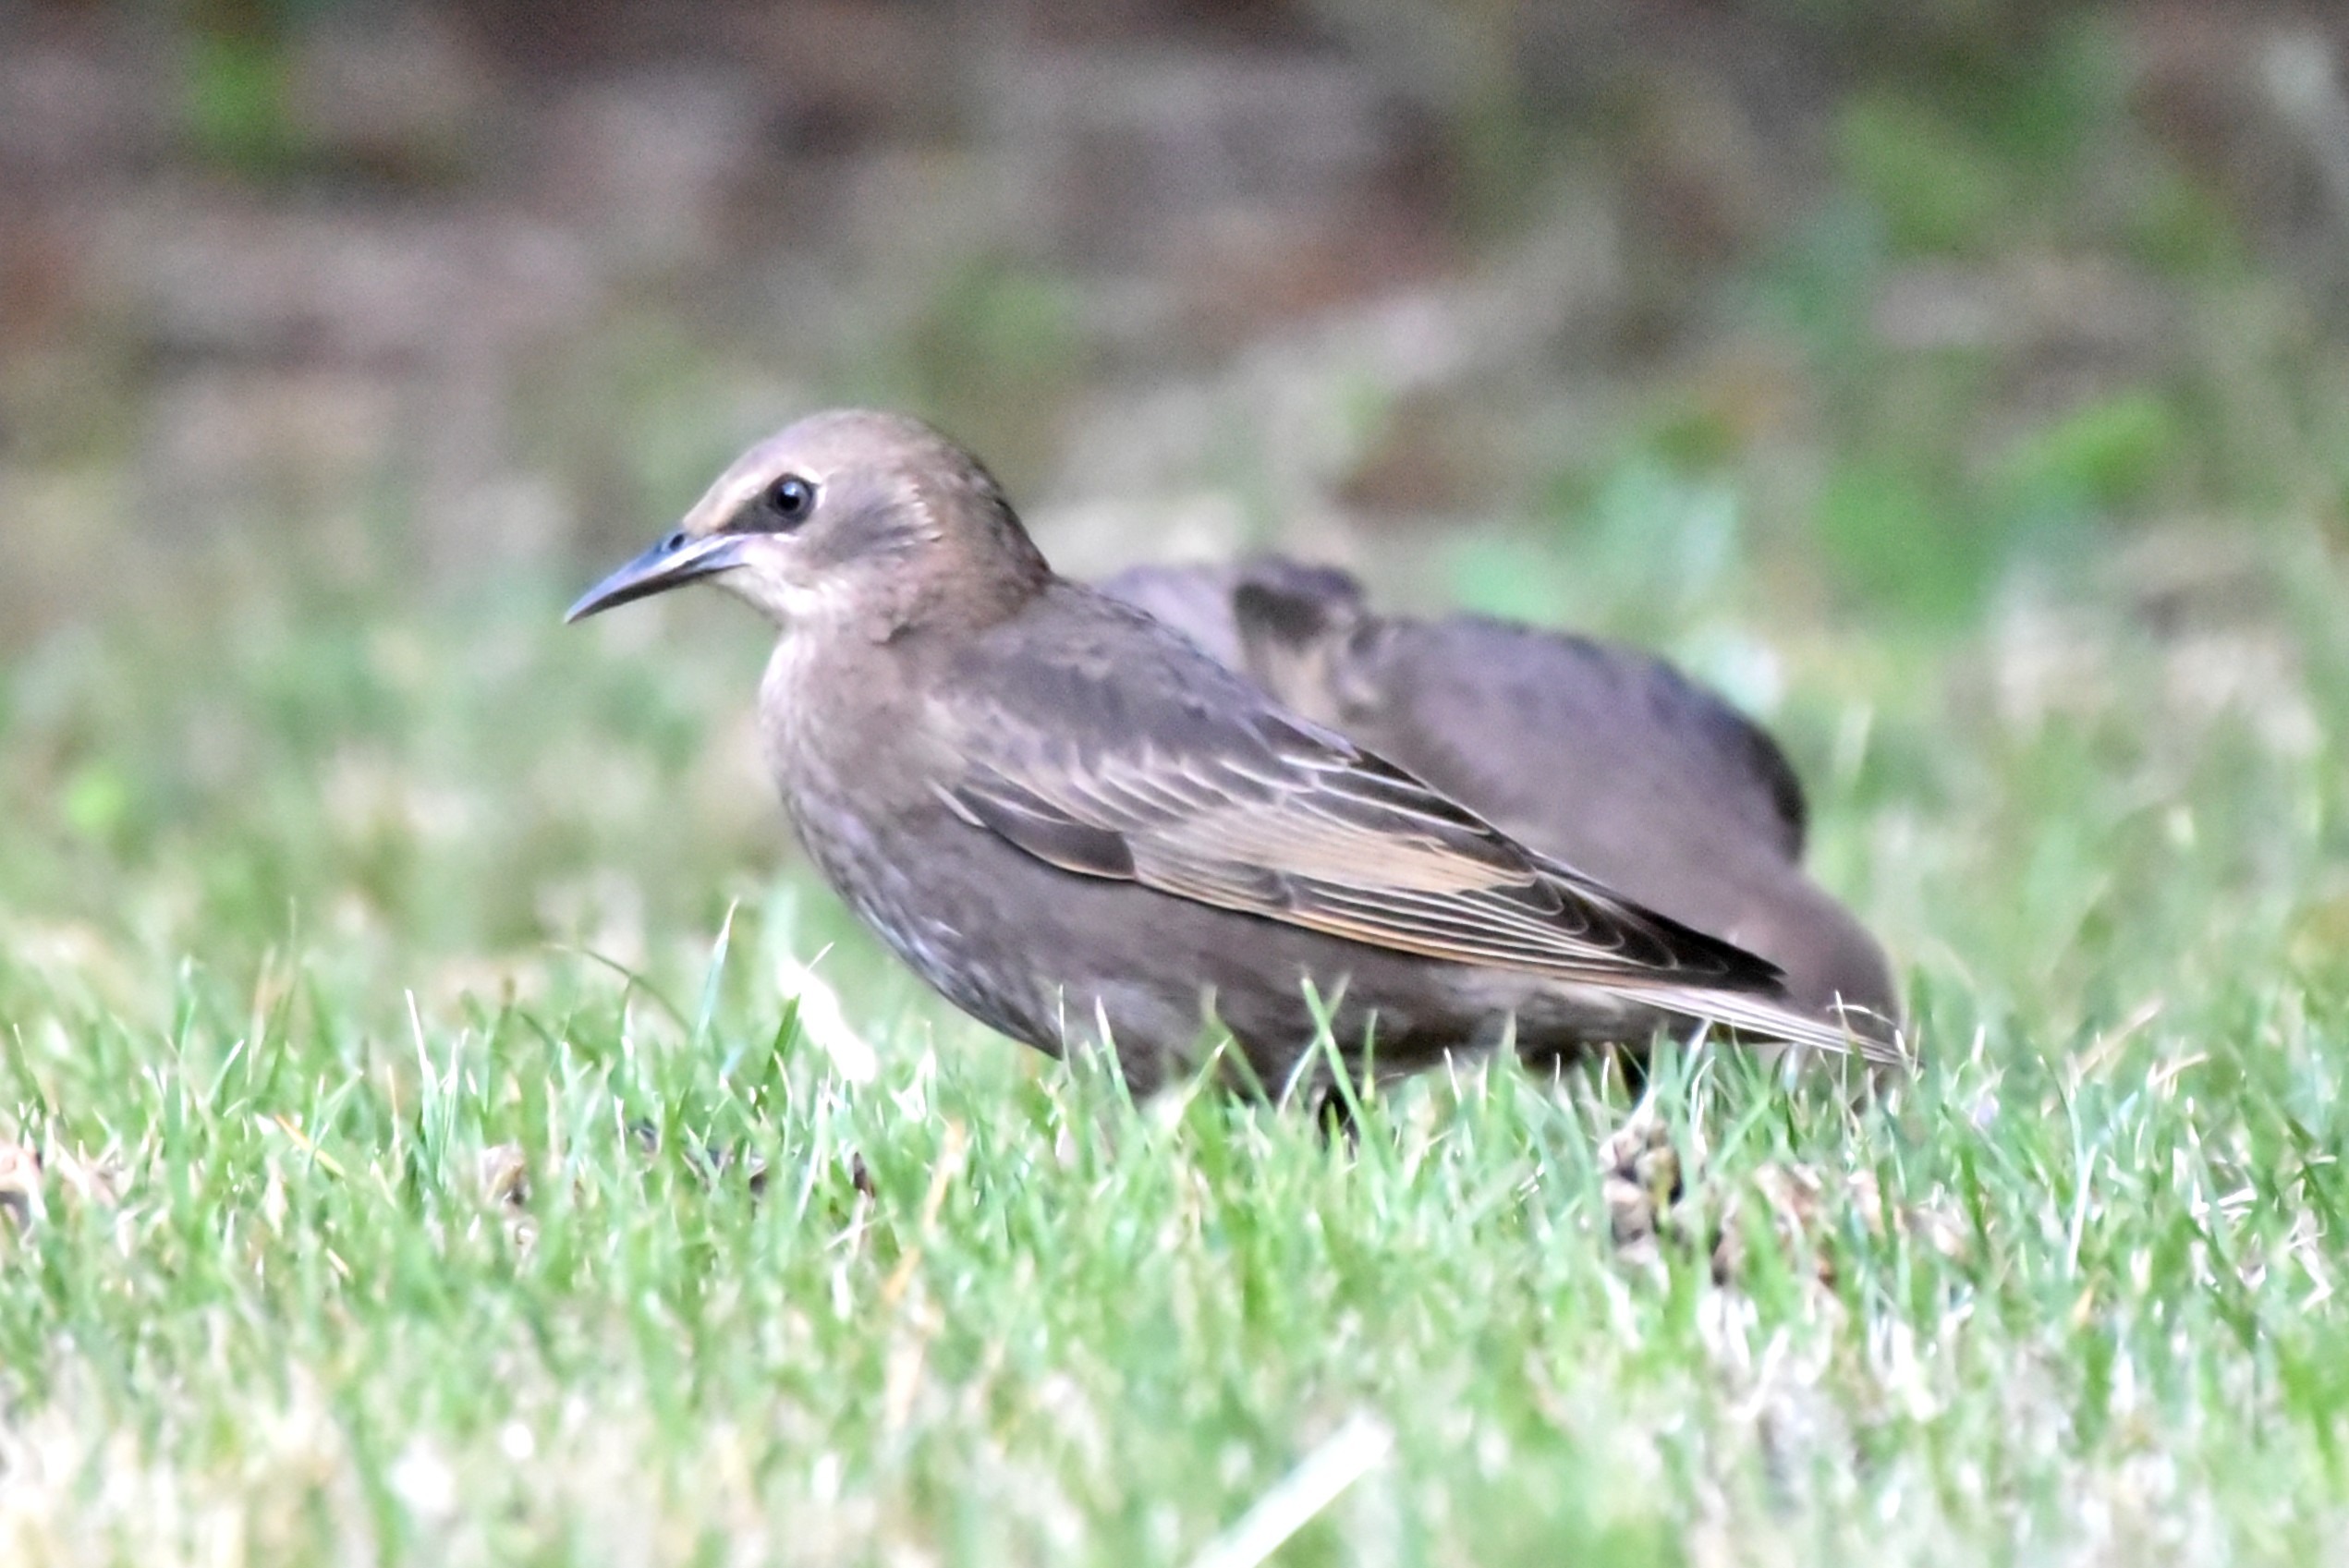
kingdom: Animalia
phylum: Chordata
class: Aves
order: Passeriformes
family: Sturnidae
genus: Sturnus
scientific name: Sturnus vulgaris
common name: Stær
